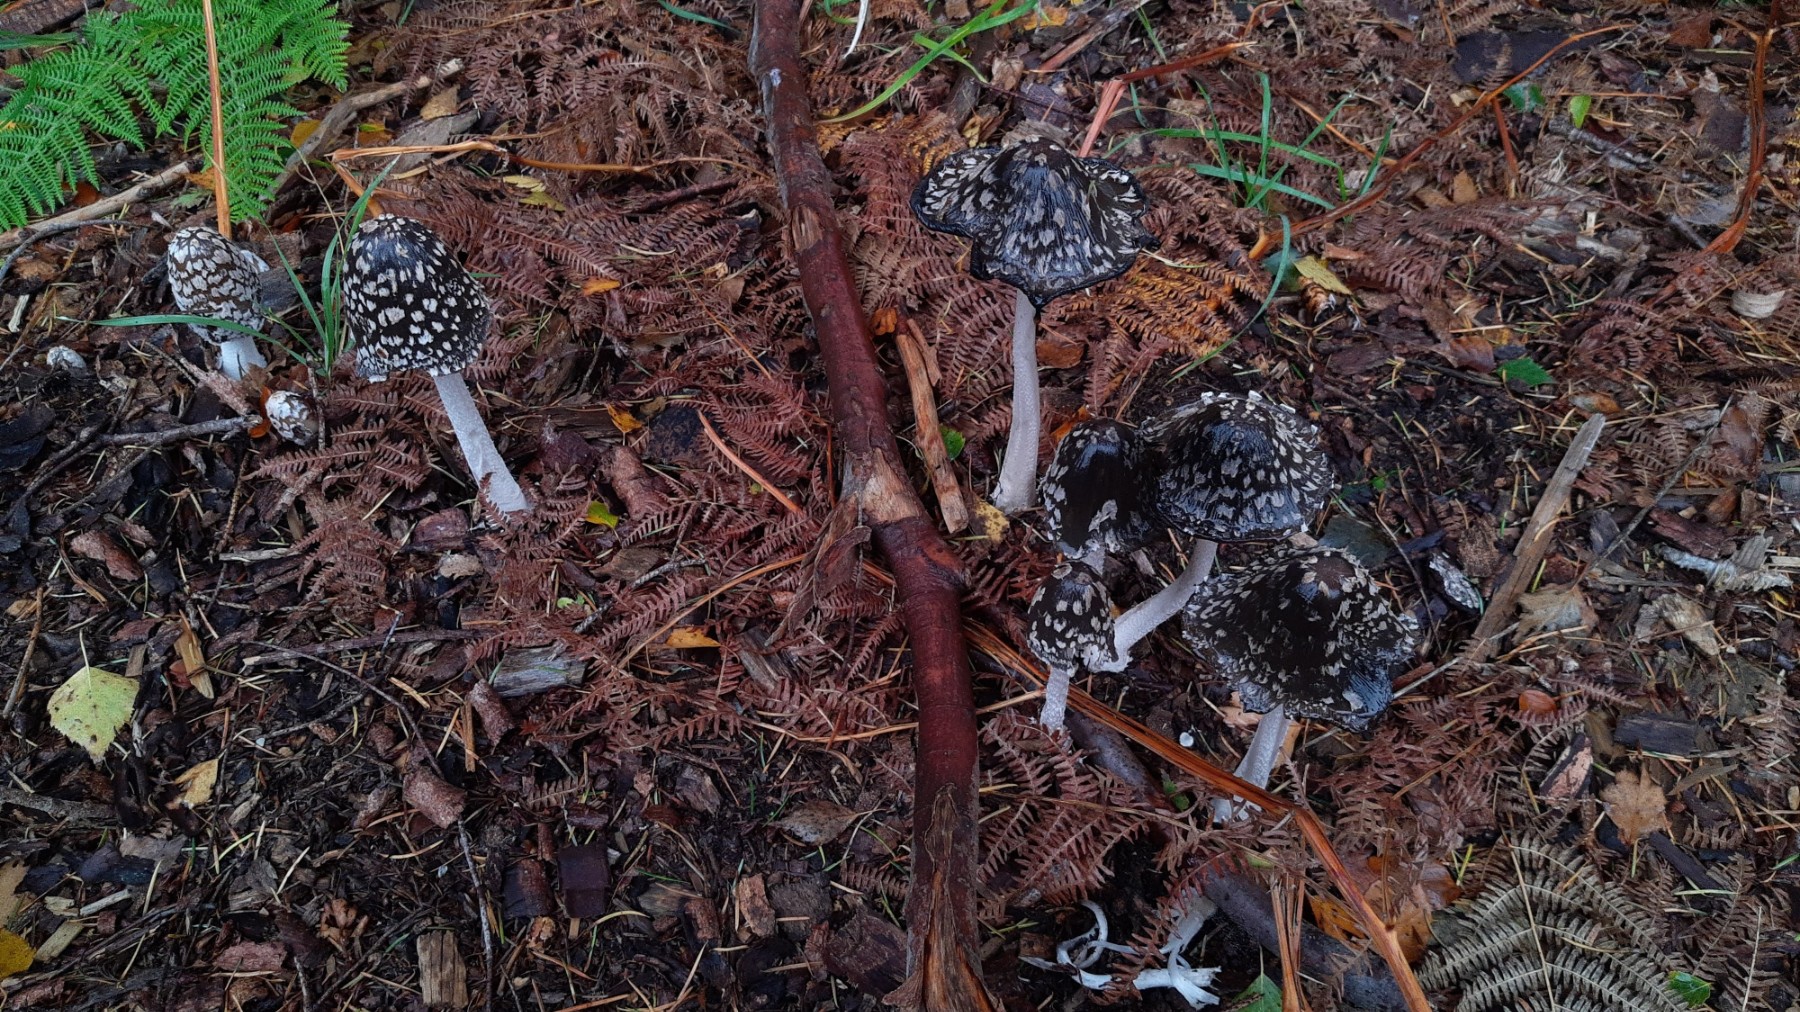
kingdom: Fungi
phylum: Basidiomycota
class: Agaricomycetes
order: Agaricales
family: Psathyrellaceae
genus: Coprinopsis
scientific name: Coprinopsis picacea
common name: skade-blækhat
